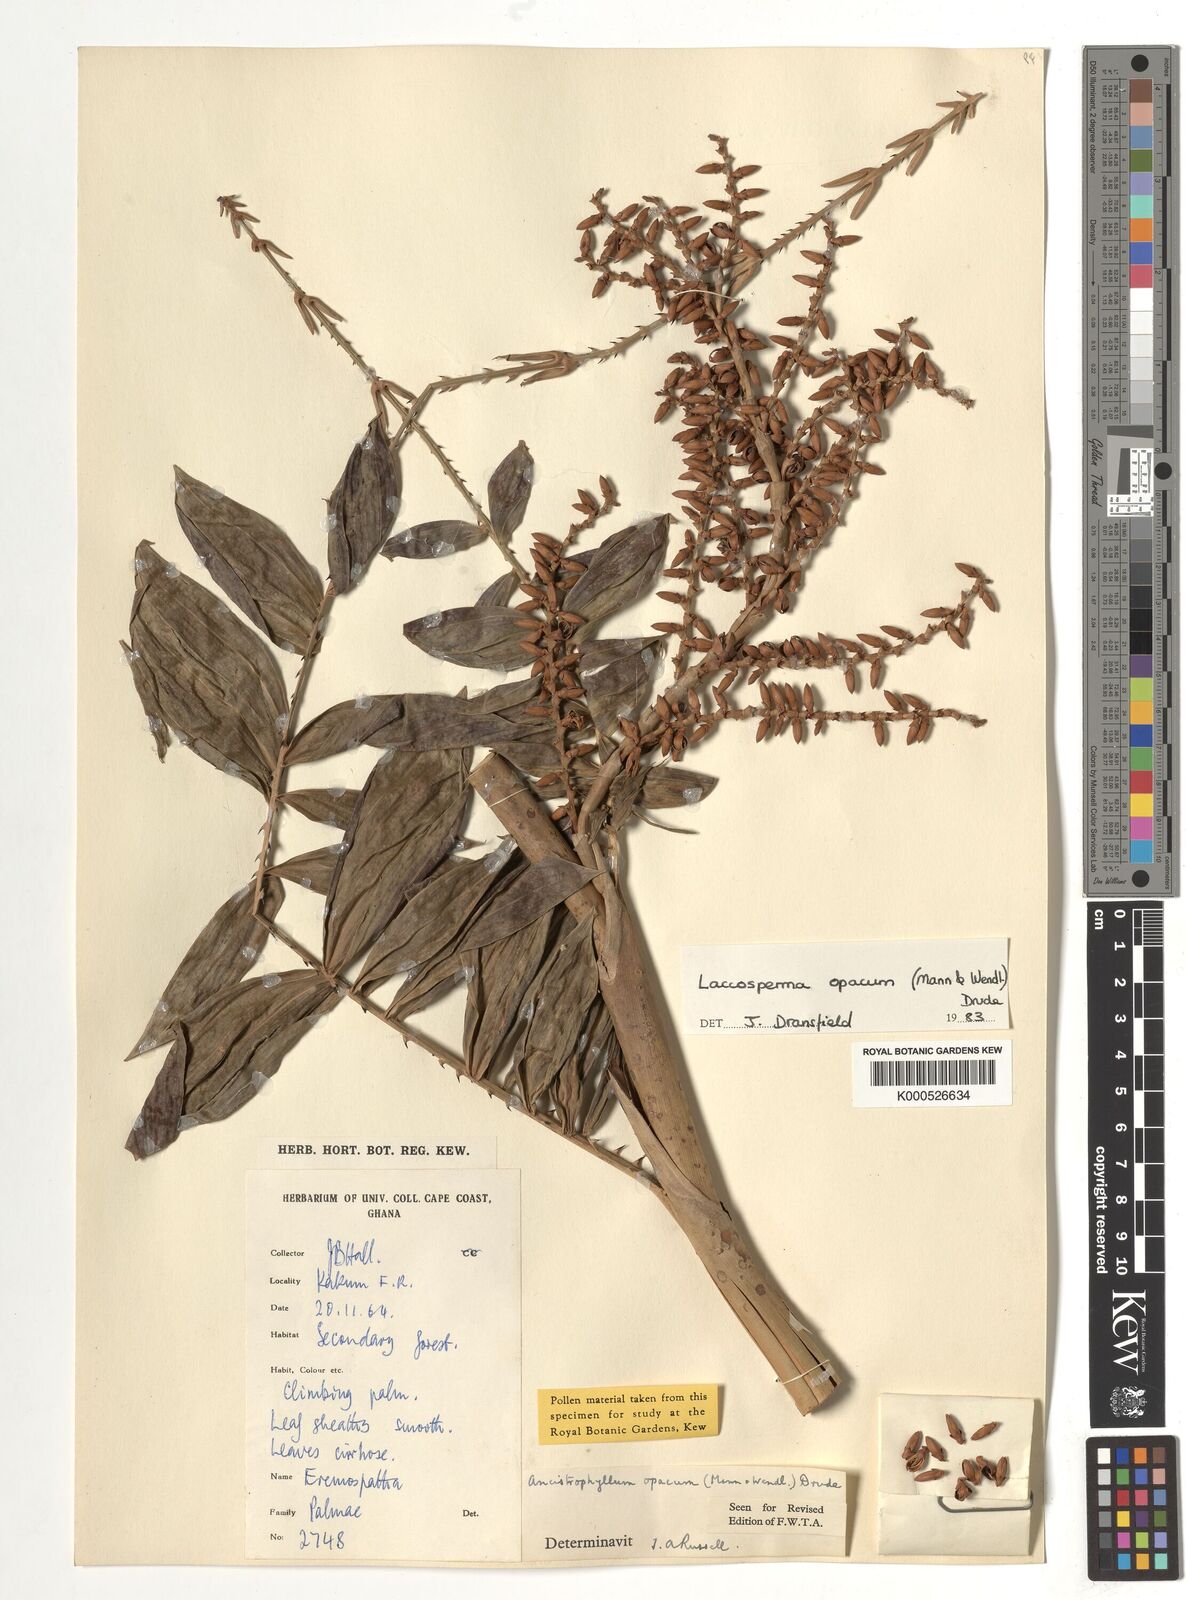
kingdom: Plantae
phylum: Tracheophyta
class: Liliopsida
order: Arecales
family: Arecaceae
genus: Laccosperma
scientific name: Laccosperma opacum
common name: Rattan
